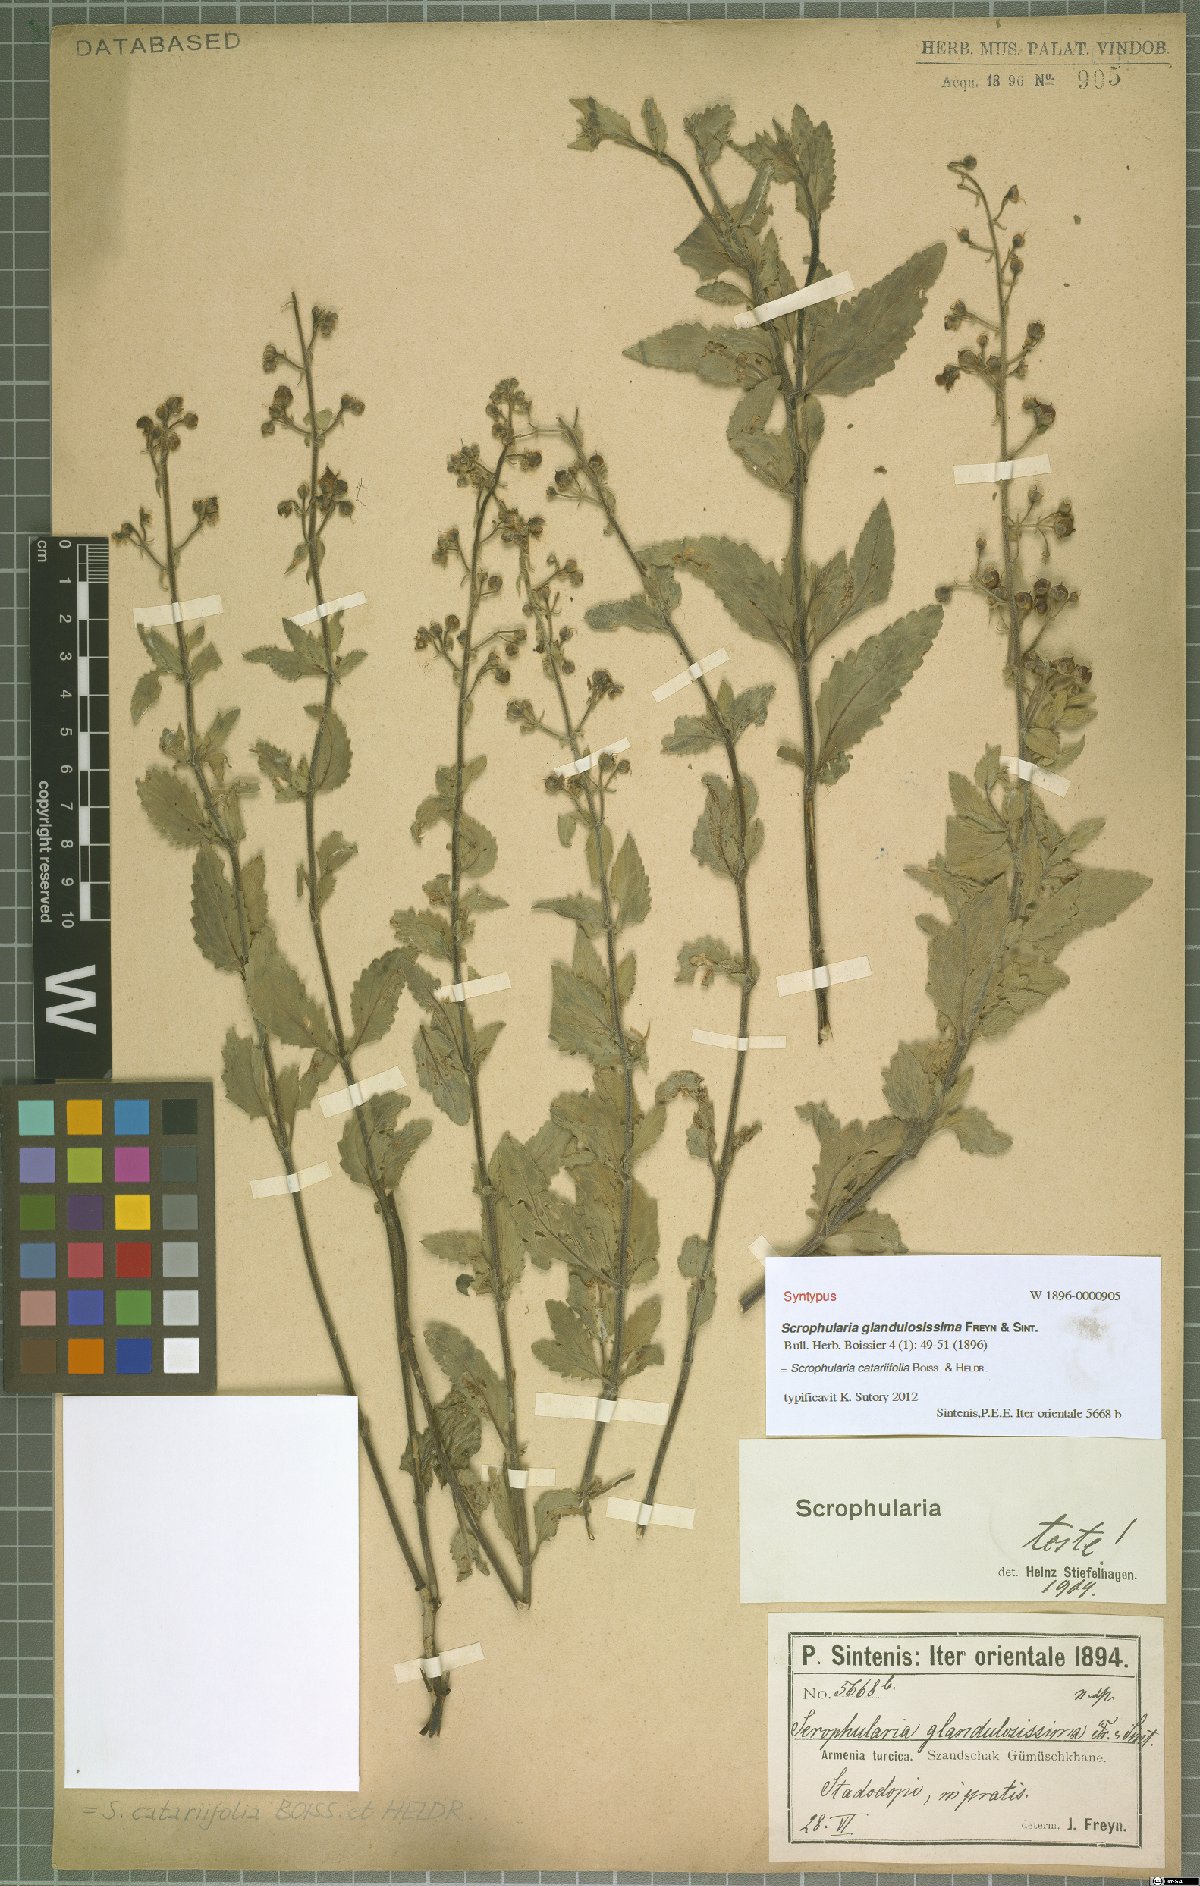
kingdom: Plantae
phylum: Tracheophyta
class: Magnoliopsida
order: Lamiales
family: Scrophulariaceae
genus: Scrophularia
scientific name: Scrophularia catariifolia
